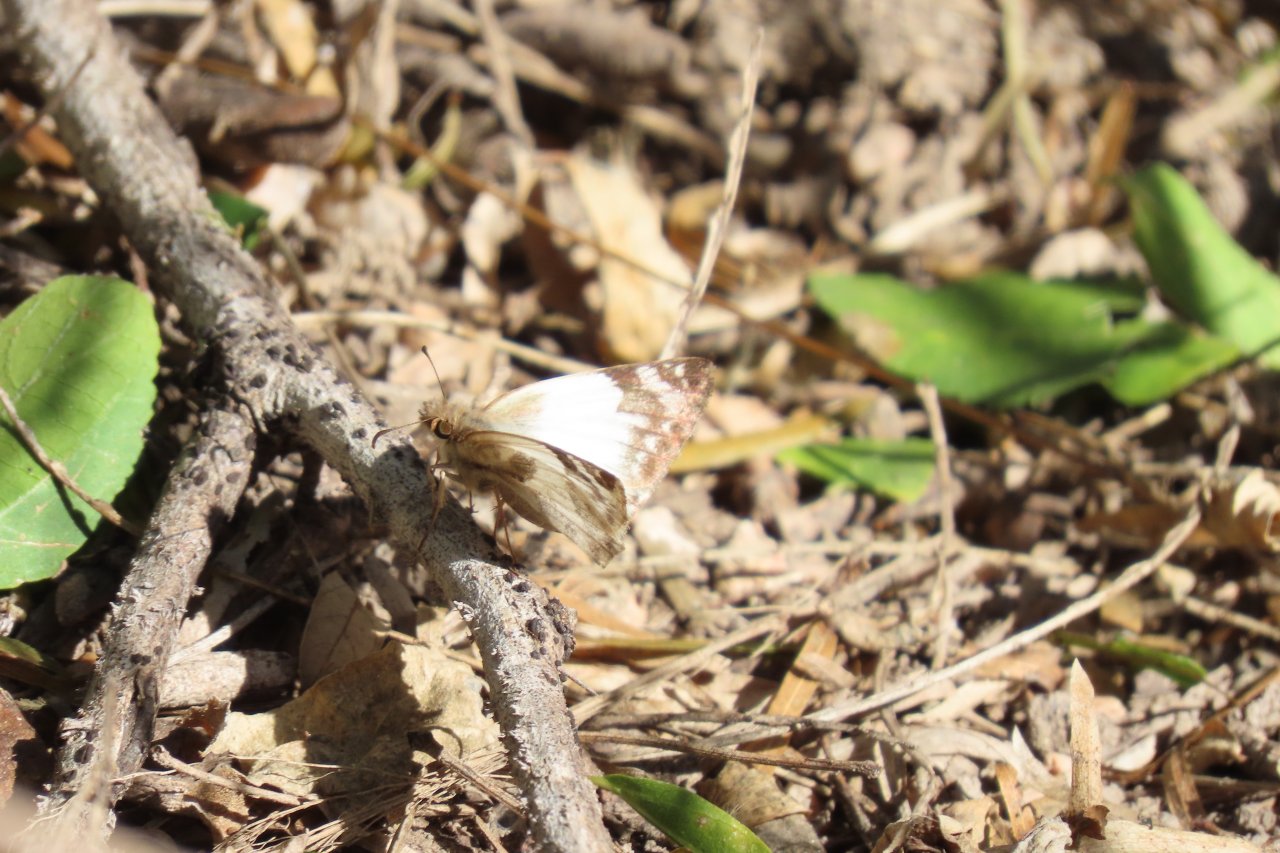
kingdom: Animalia
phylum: Arthropoda
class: Insecta
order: Lepidoptera
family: Hesperiidae
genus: Heliopetes
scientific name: Heliopetes laviana
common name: Laviana White-Skipper
